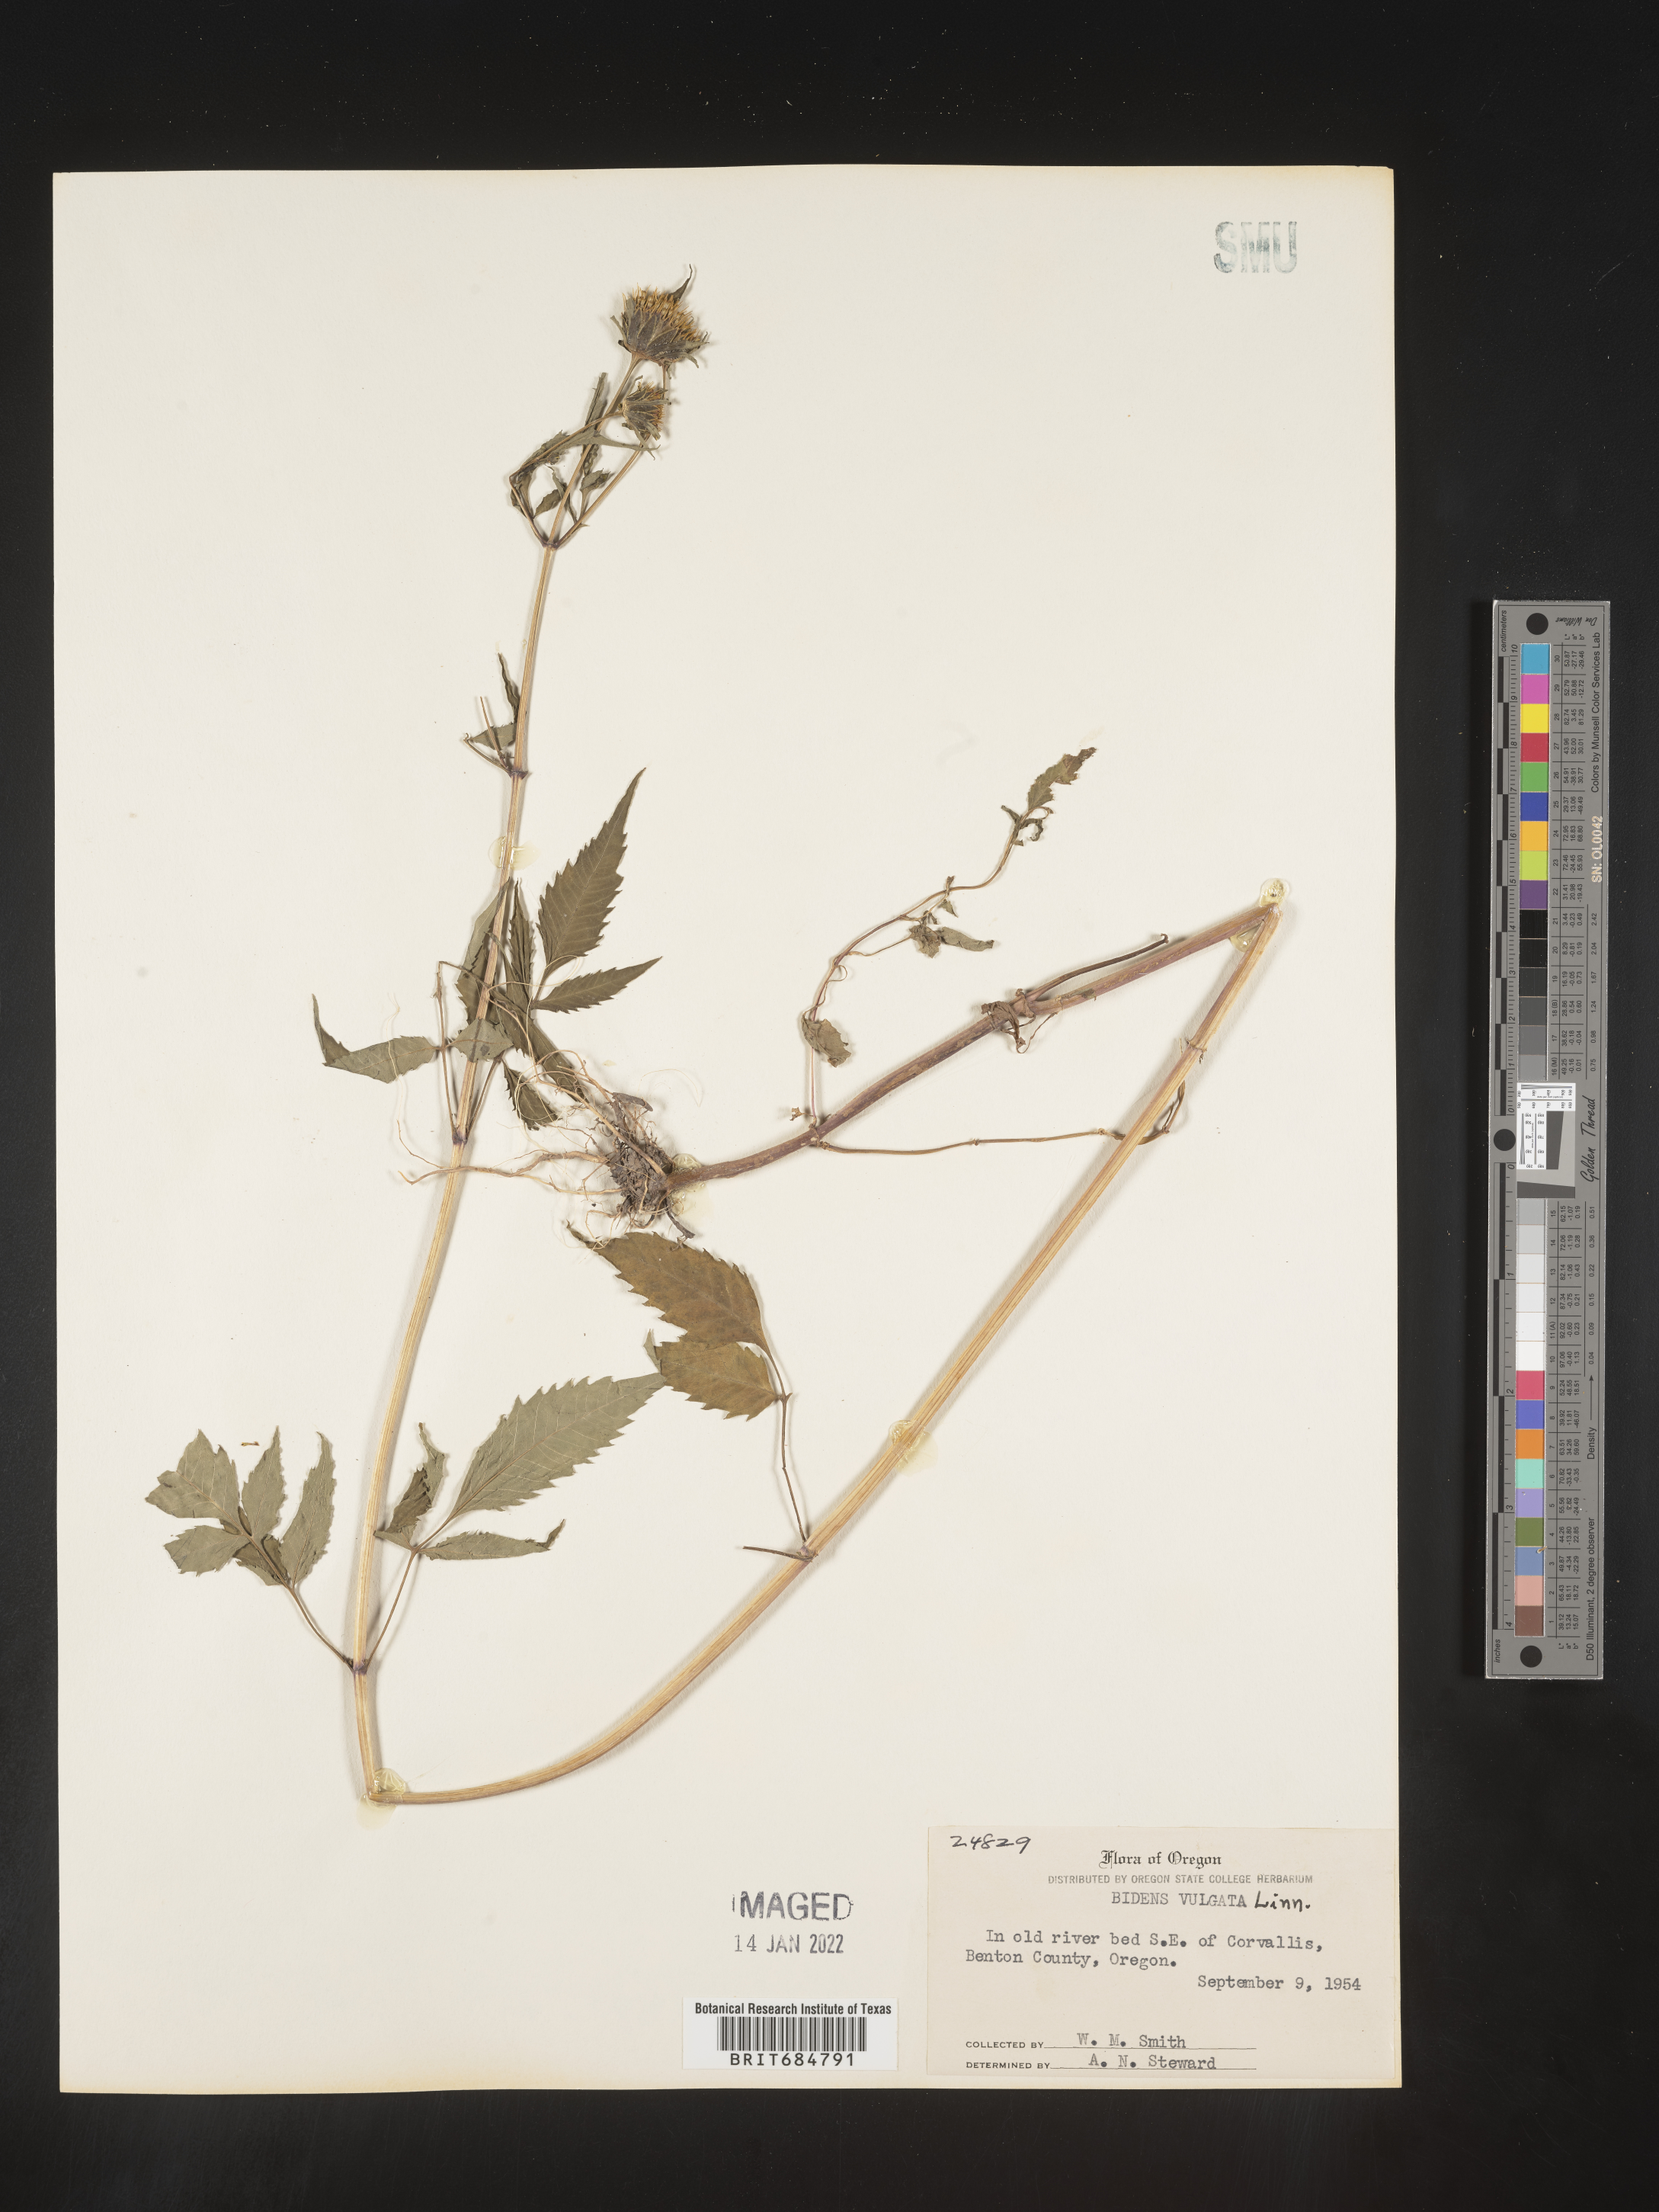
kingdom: Plantae
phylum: Tracheophyta
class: Magnoliopsida
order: Asterales
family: Asteraceae
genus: Bidens
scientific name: Bidens vulgata
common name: Tall beggarticks
